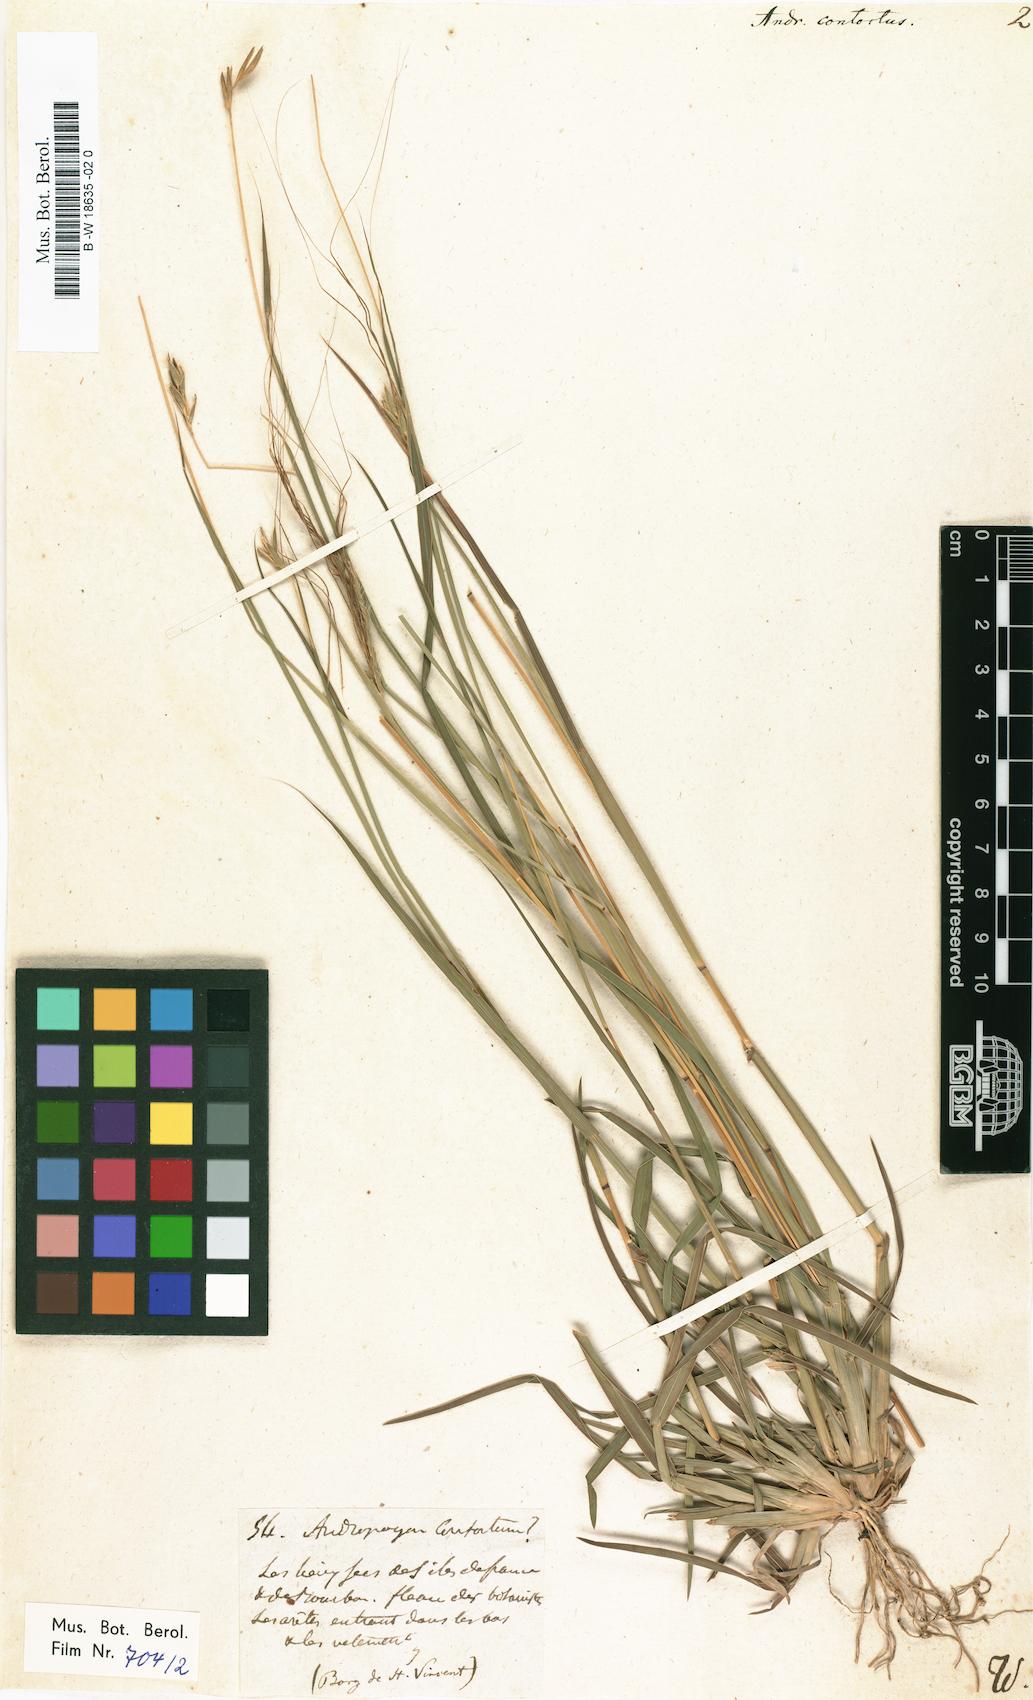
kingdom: Plantae
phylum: Tracheophyta
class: Liliopsida
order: Poales
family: Poaceae
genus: Heteropogon
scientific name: Heteropogon contortus
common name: Tanglehead
